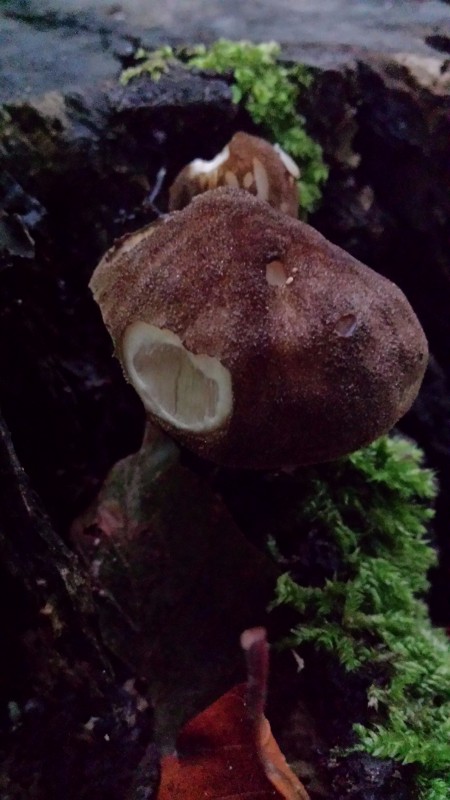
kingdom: Fungi
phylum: Basidiomycota
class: Agaricomycetes
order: Agaricales
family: Pluteaceae
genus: Pluteus
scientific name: Pluteus umbrosus
